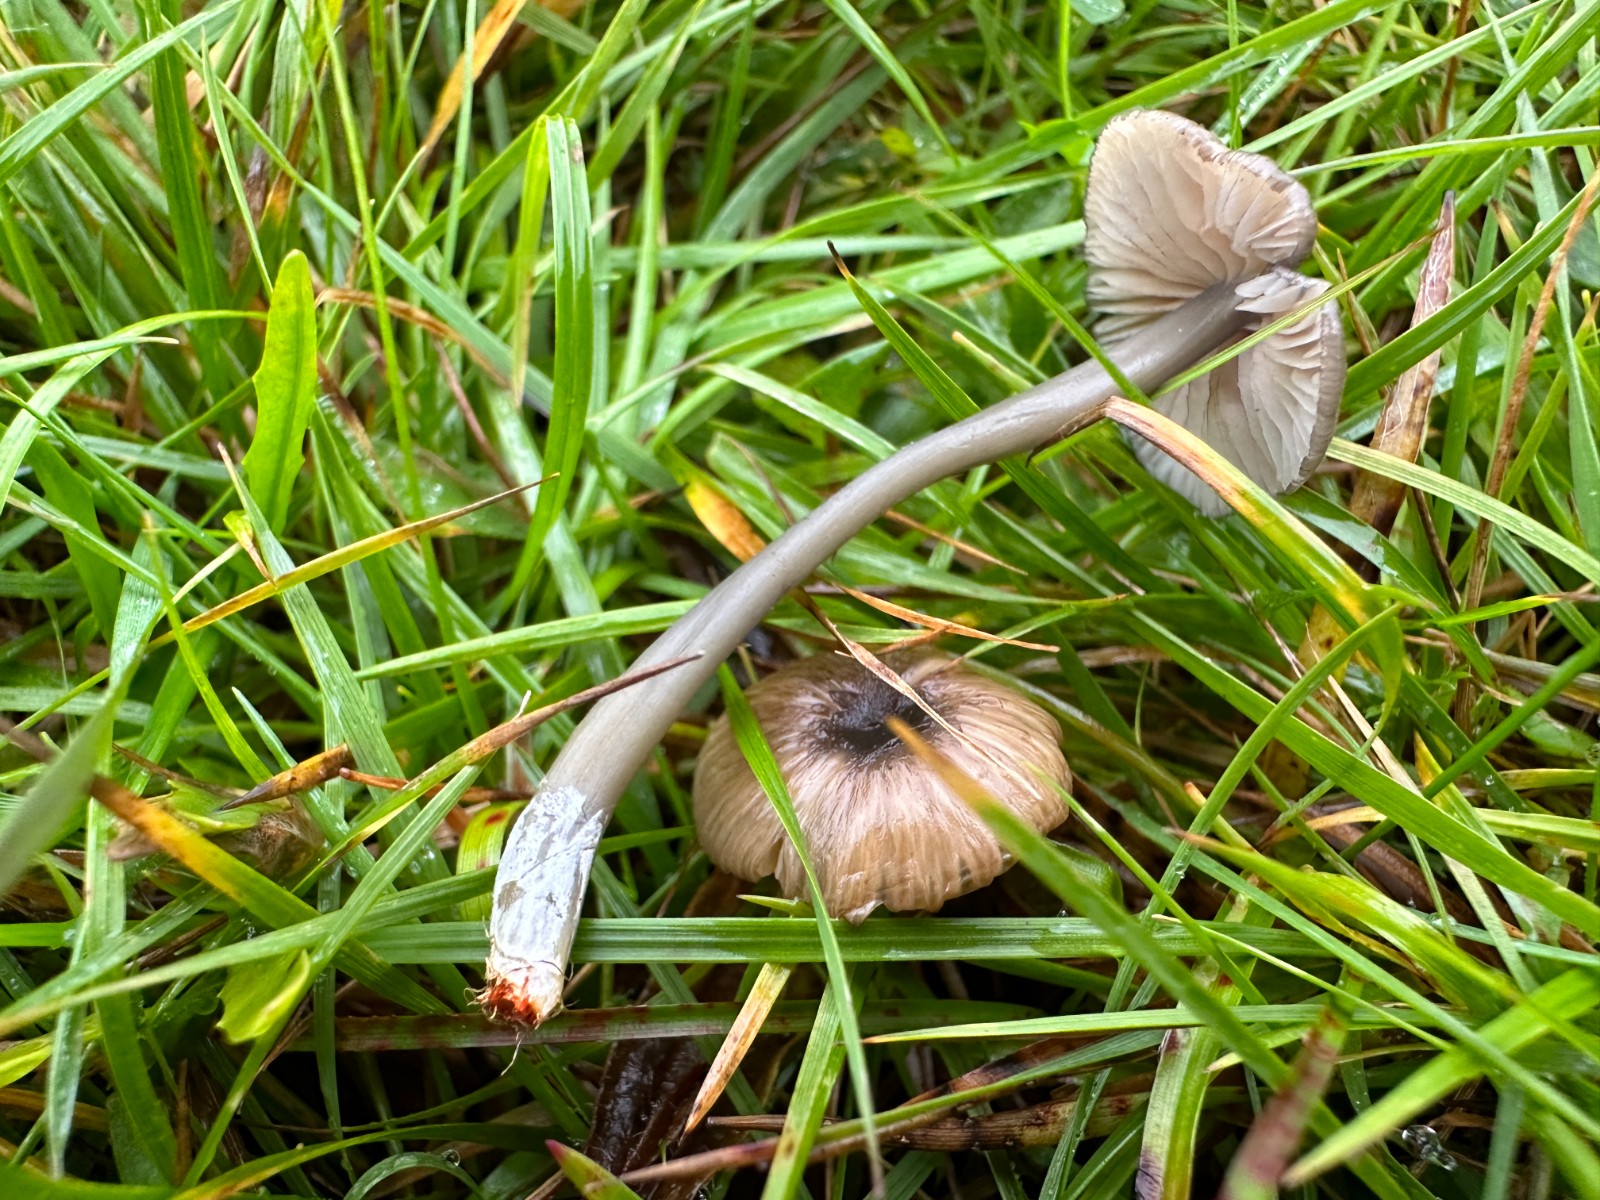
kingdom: Fungi
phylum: Basidiomycota
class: Agaricomycetes
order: Agaricales
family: Entolomataceae
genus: Entoloma
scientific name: Entoloma exile
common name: rødplettet rødblad
